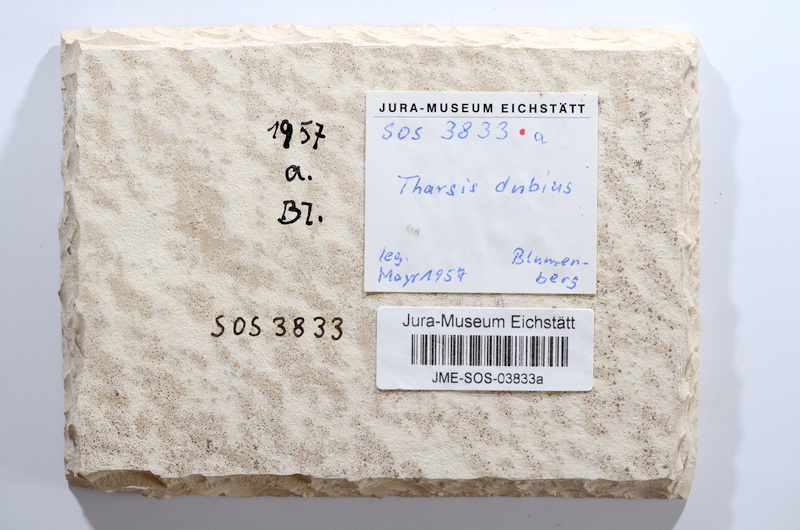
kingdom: Animalia
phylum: Chordata
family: Ascalaboidae
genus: Tharsis
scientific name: Tharsis dubius
